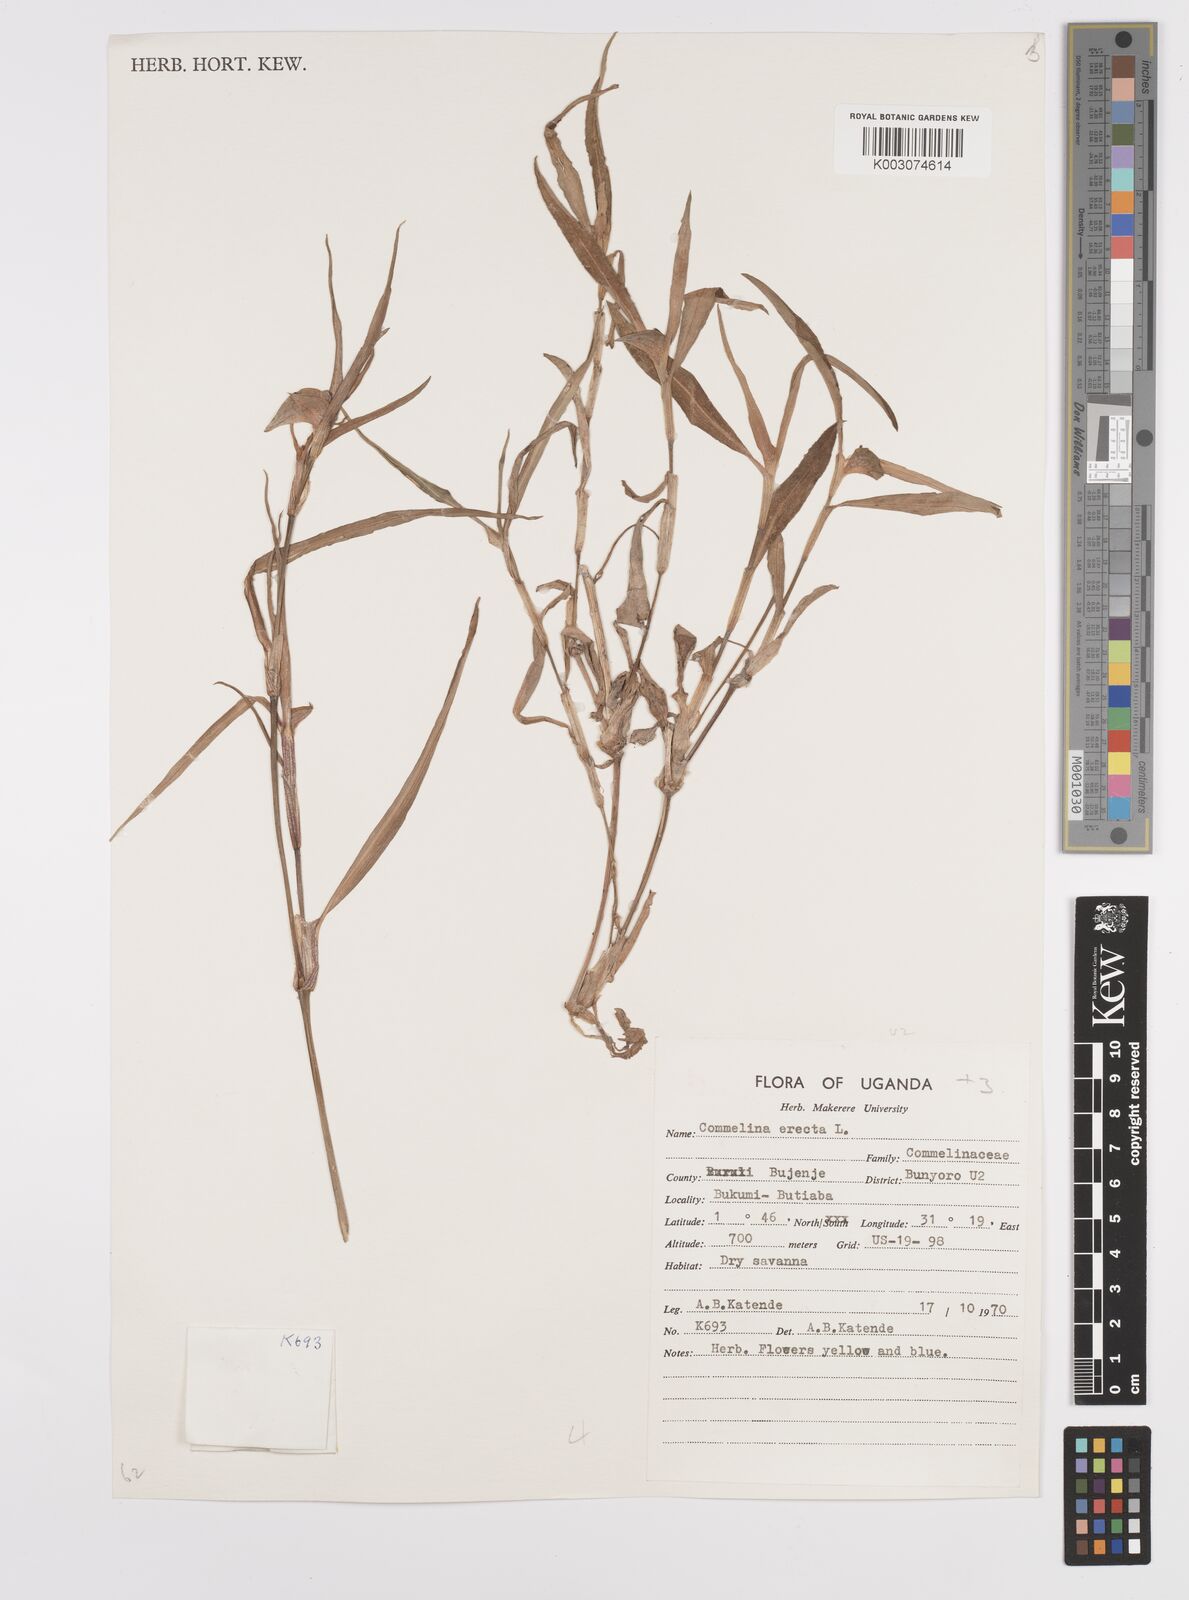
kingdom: Plantae
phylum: Tracheophyta
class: Liliopsida
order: Commelinales
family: Commelinaceae
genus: Commelina
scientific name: Commelina erecta
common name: Blousel blommetjie
